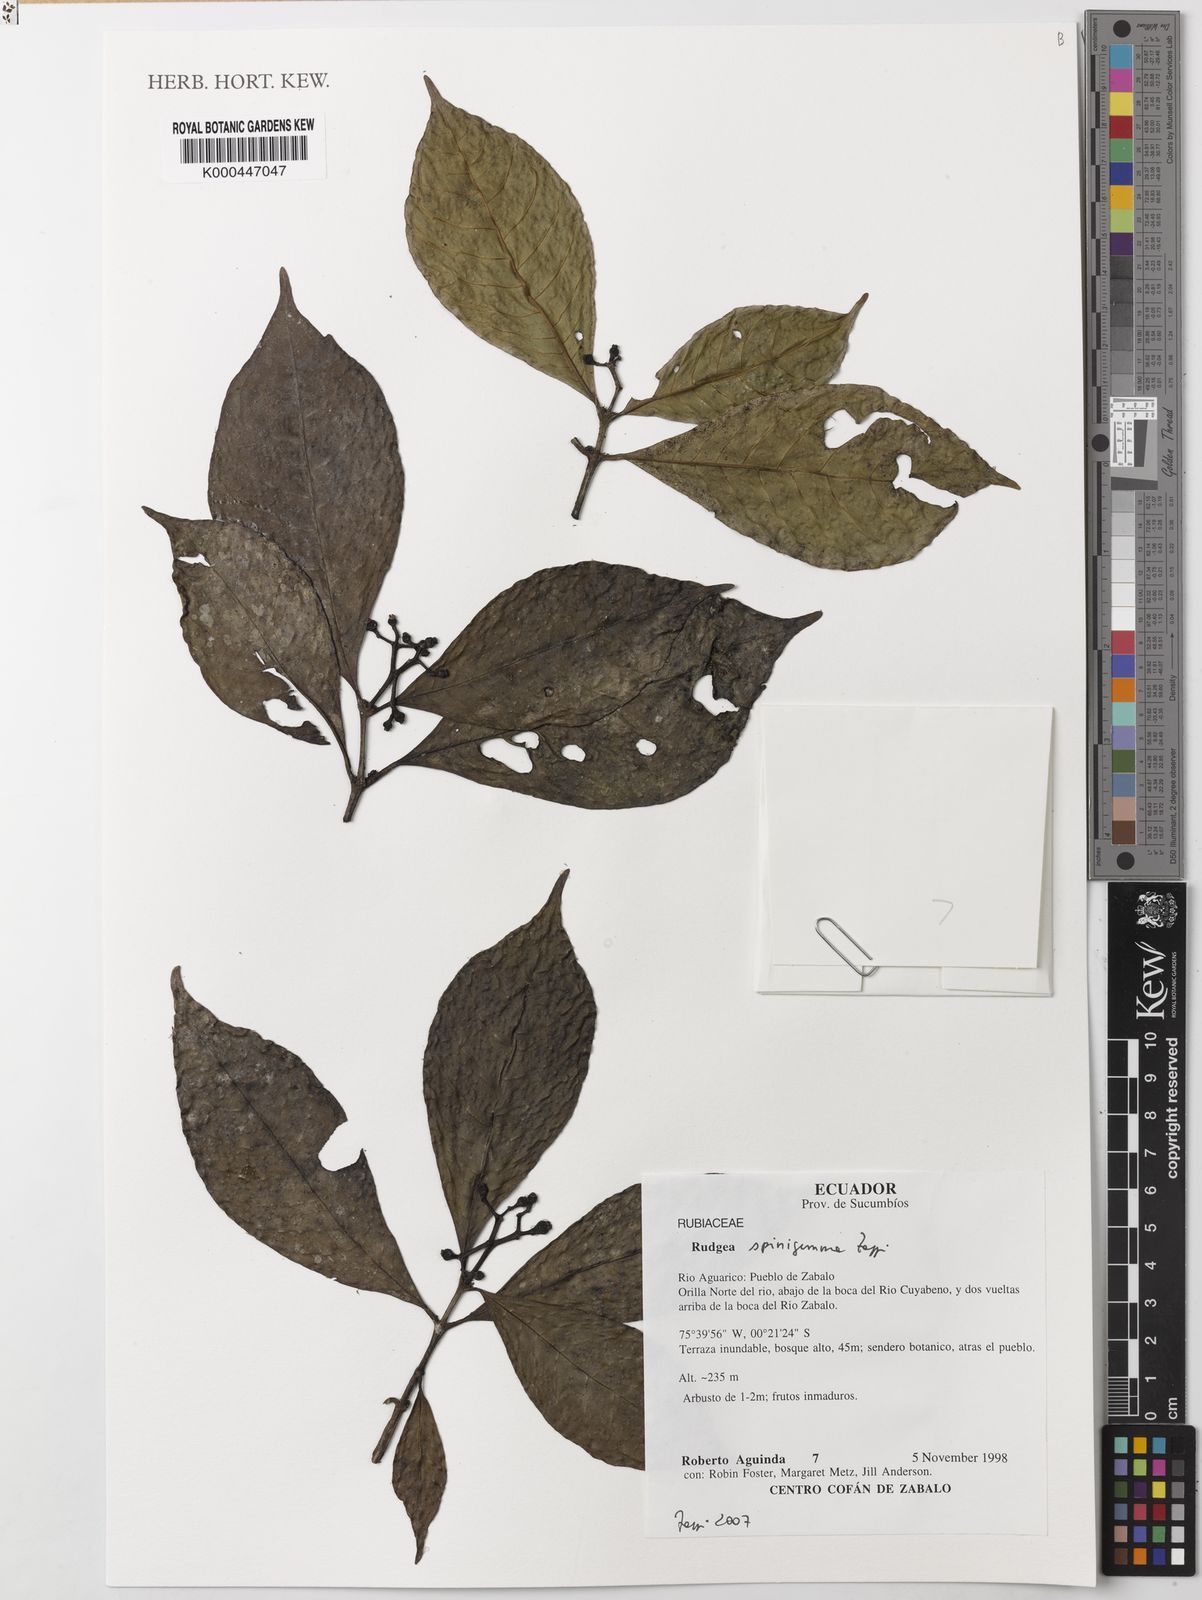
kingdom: Plantae
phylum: Tracheophyta
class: Magnoliopsida
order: Gentianales
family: Rubiaceae
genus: Rudgea
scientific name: Rudgea spinigemma
